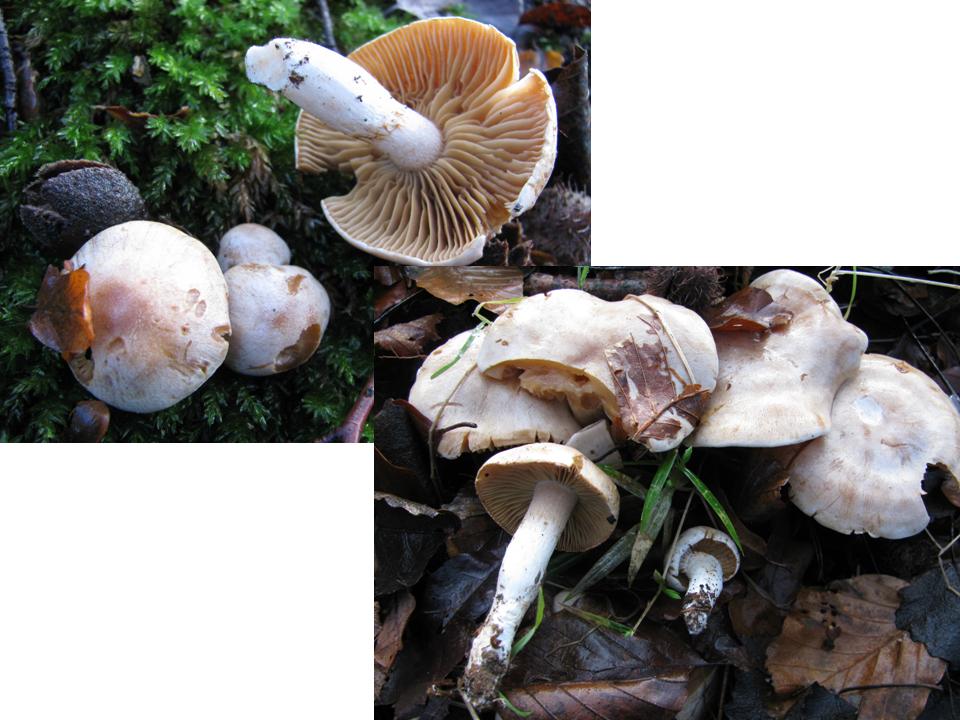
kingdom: Fungi
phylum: Basidiomycota
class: Agaricomycetes
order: Agaricales
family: Cortinariaceae
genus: Thaxterogaster
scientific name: Thaxterogaster leucoluteolus
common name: isabella slørhat
